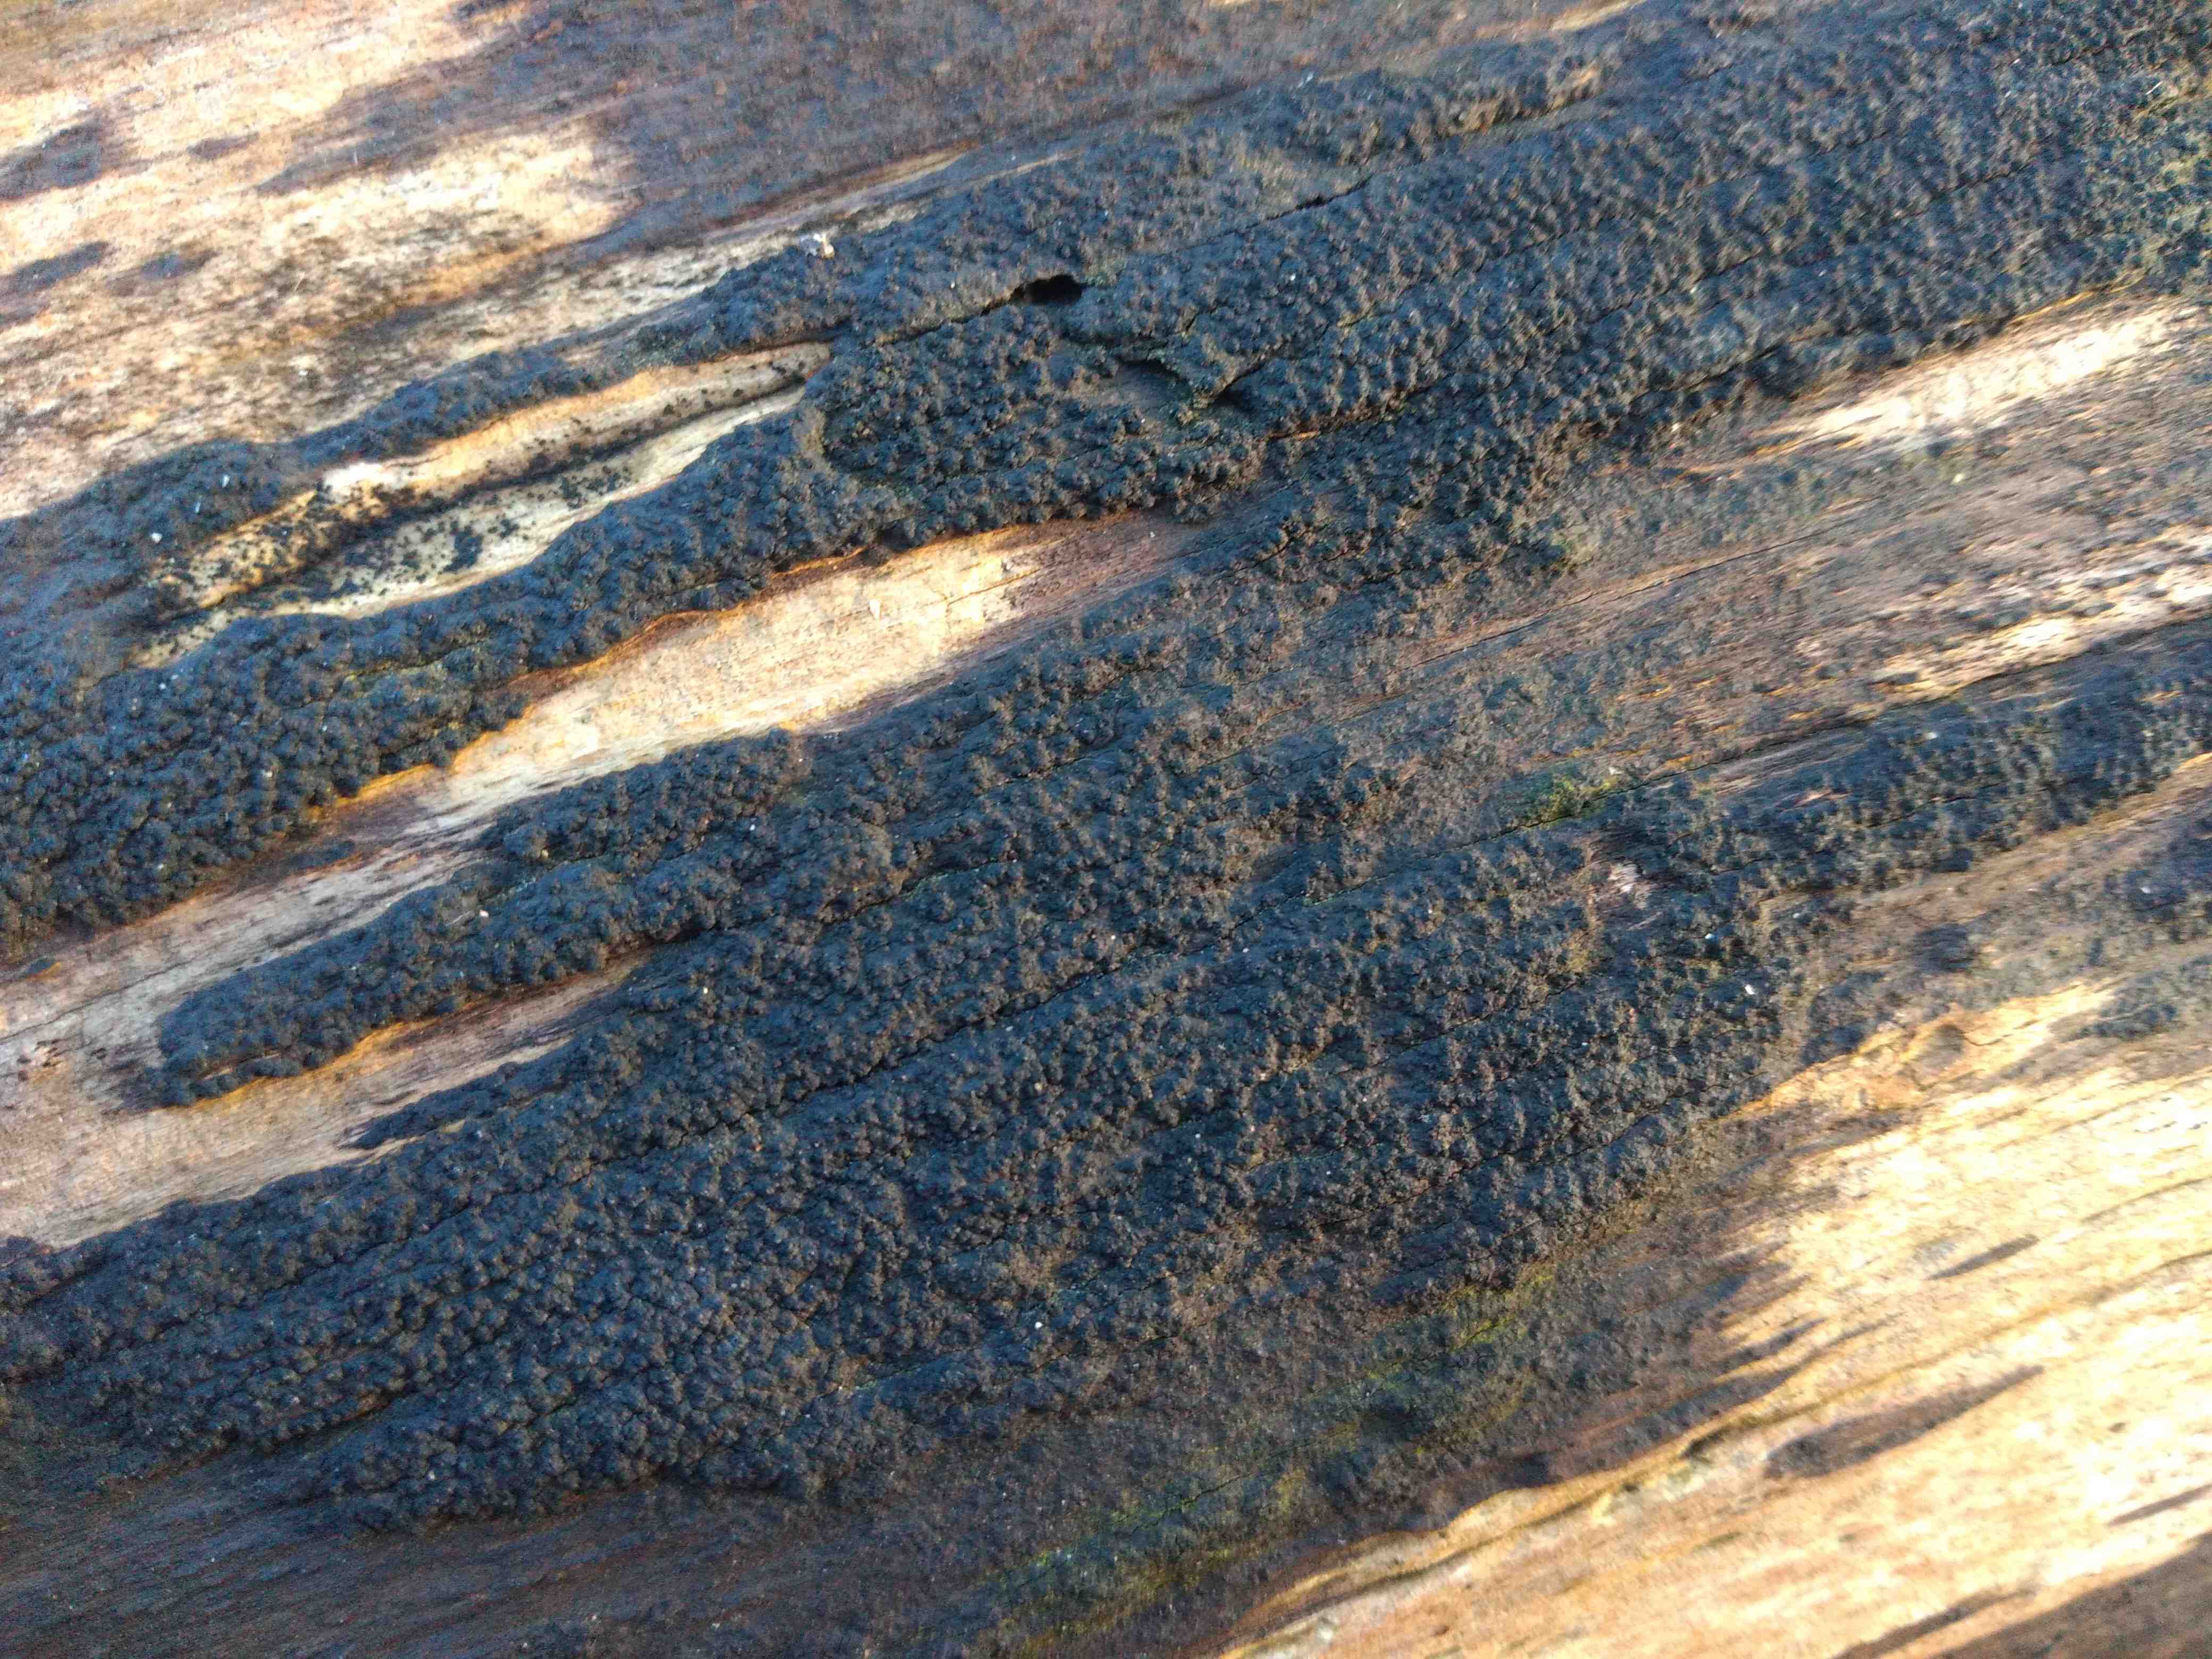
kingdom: Fungi
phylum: Ascomycota
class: Sordariomycetes
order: Xylariales
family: Diatrypaceae
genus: Eutypa
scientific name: Eutypa spinosa
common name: grov kulskorpe
